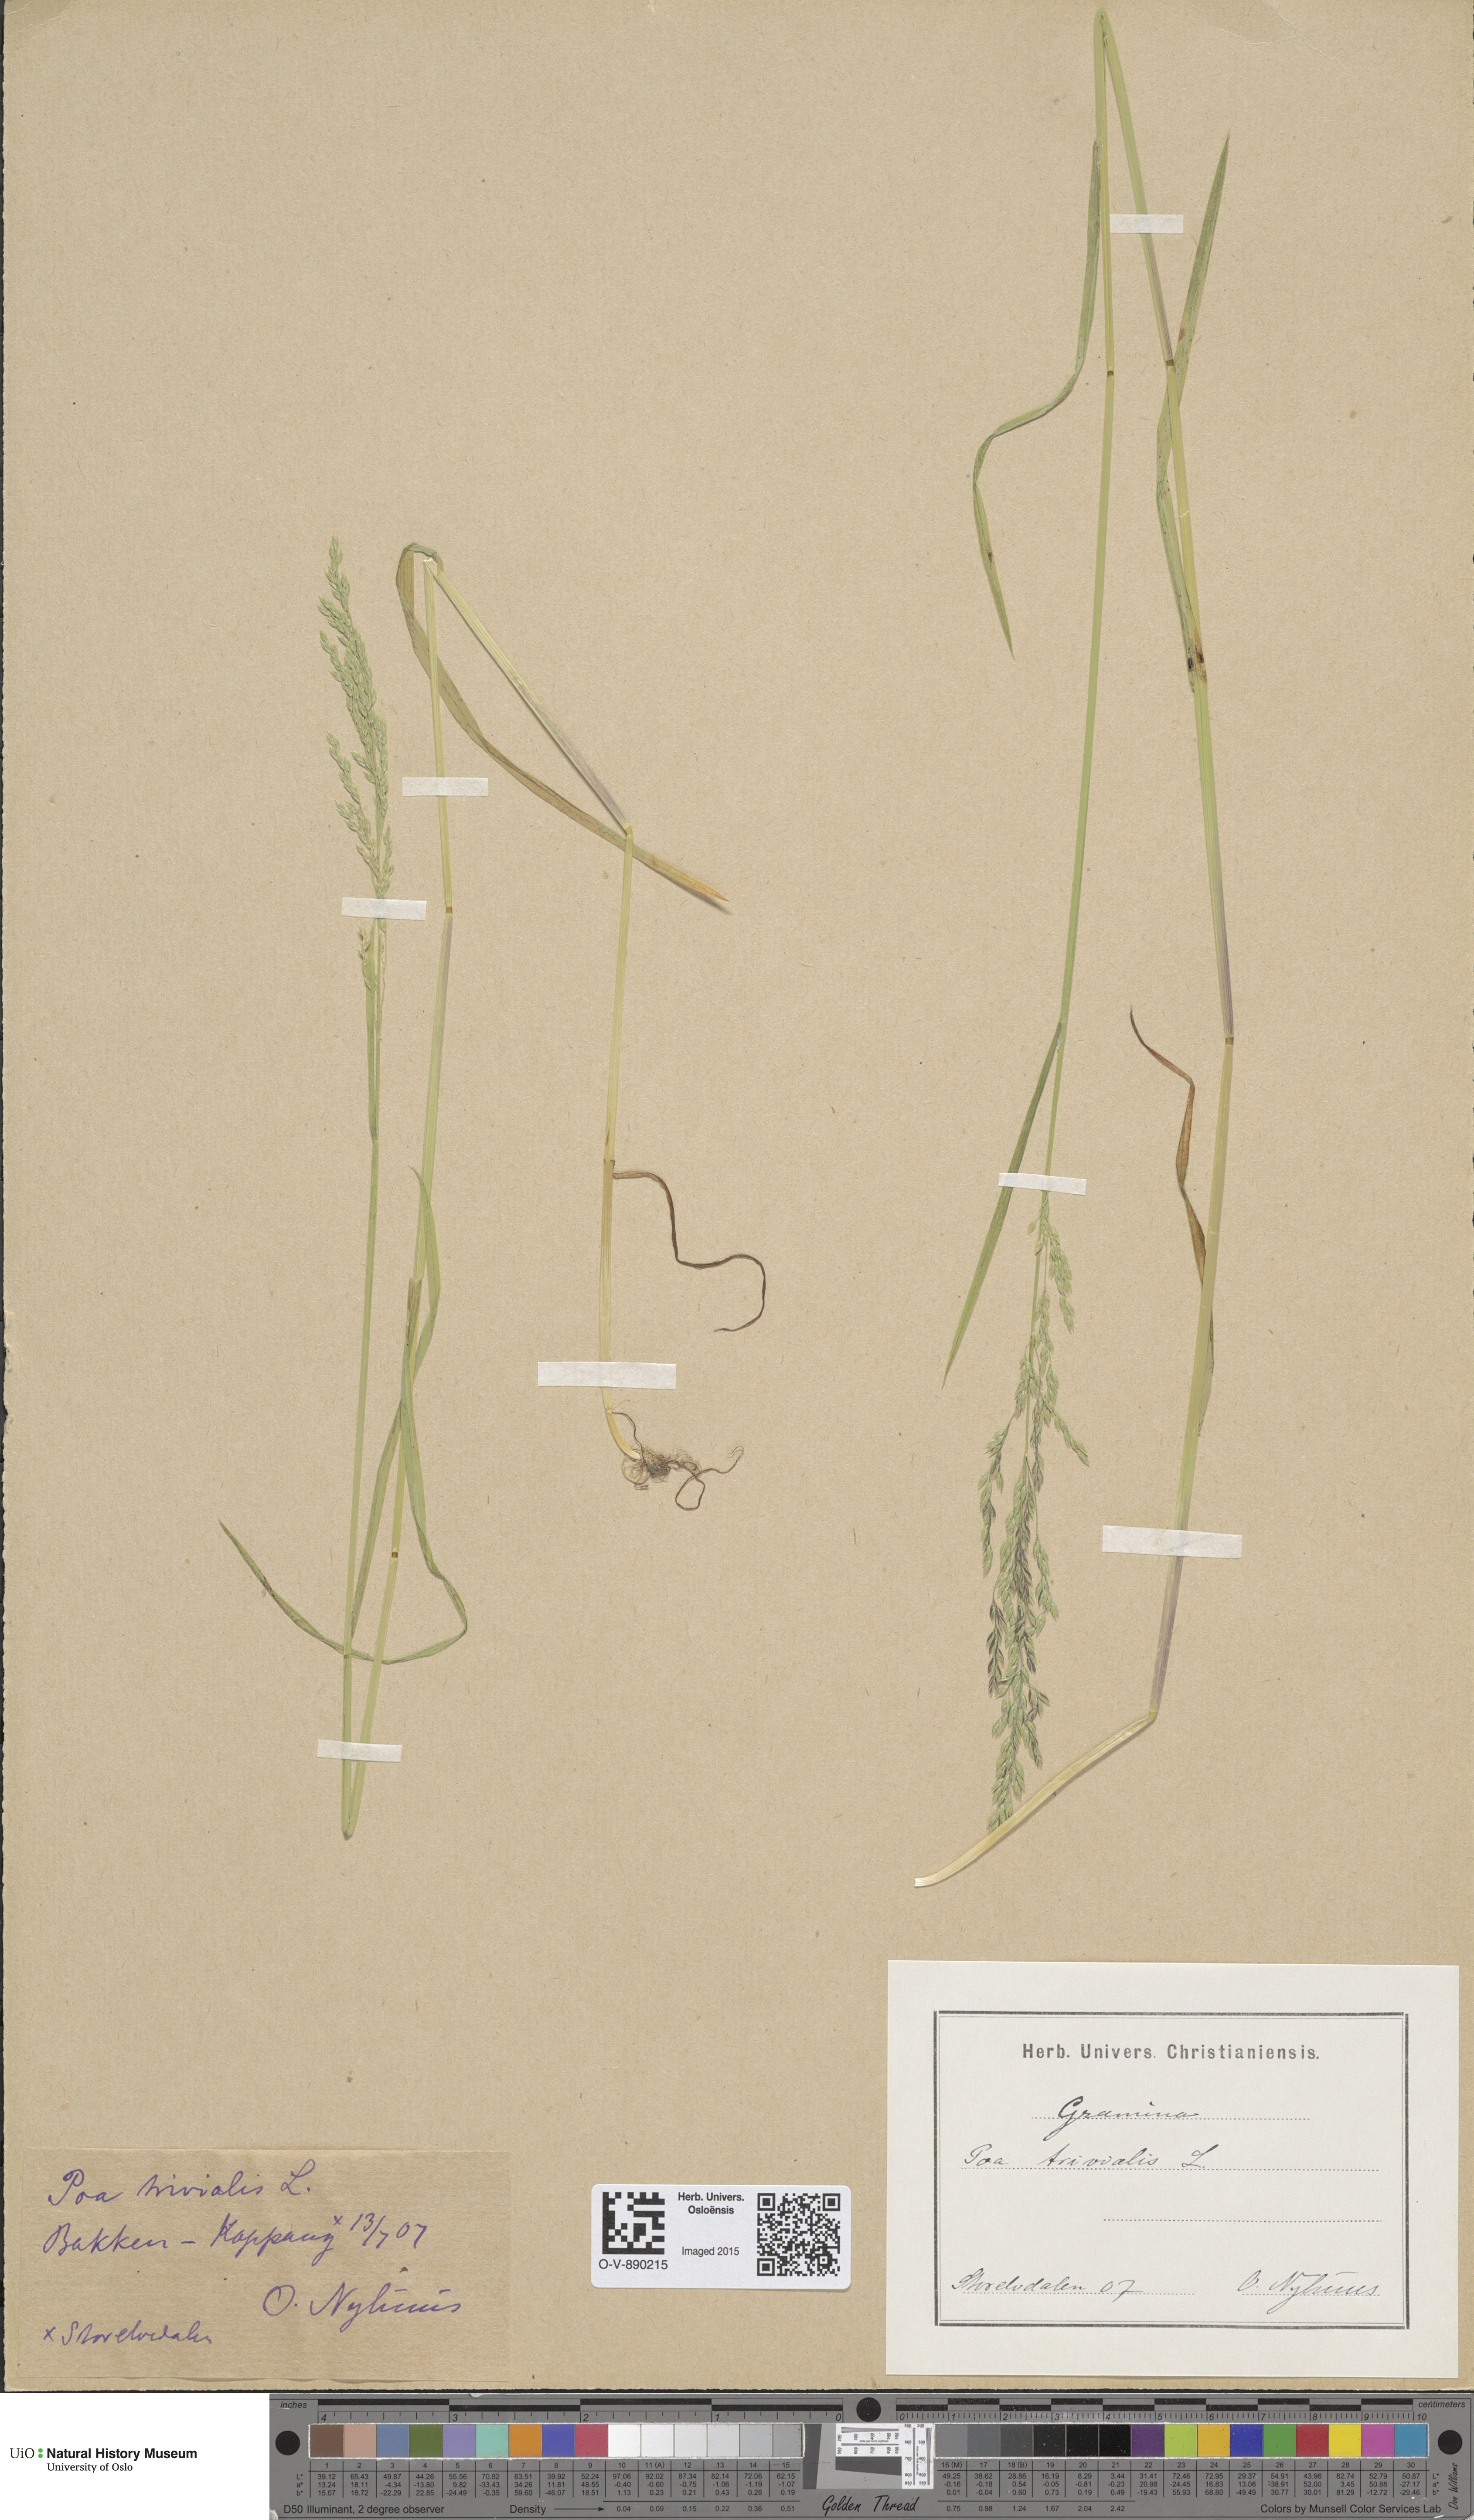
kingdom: Plantae
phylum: Tracheophyta
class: Liliopsida
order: Poales
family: Poaceae
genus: Poa
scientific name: Poa trivialis
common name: Rough bluegrass
